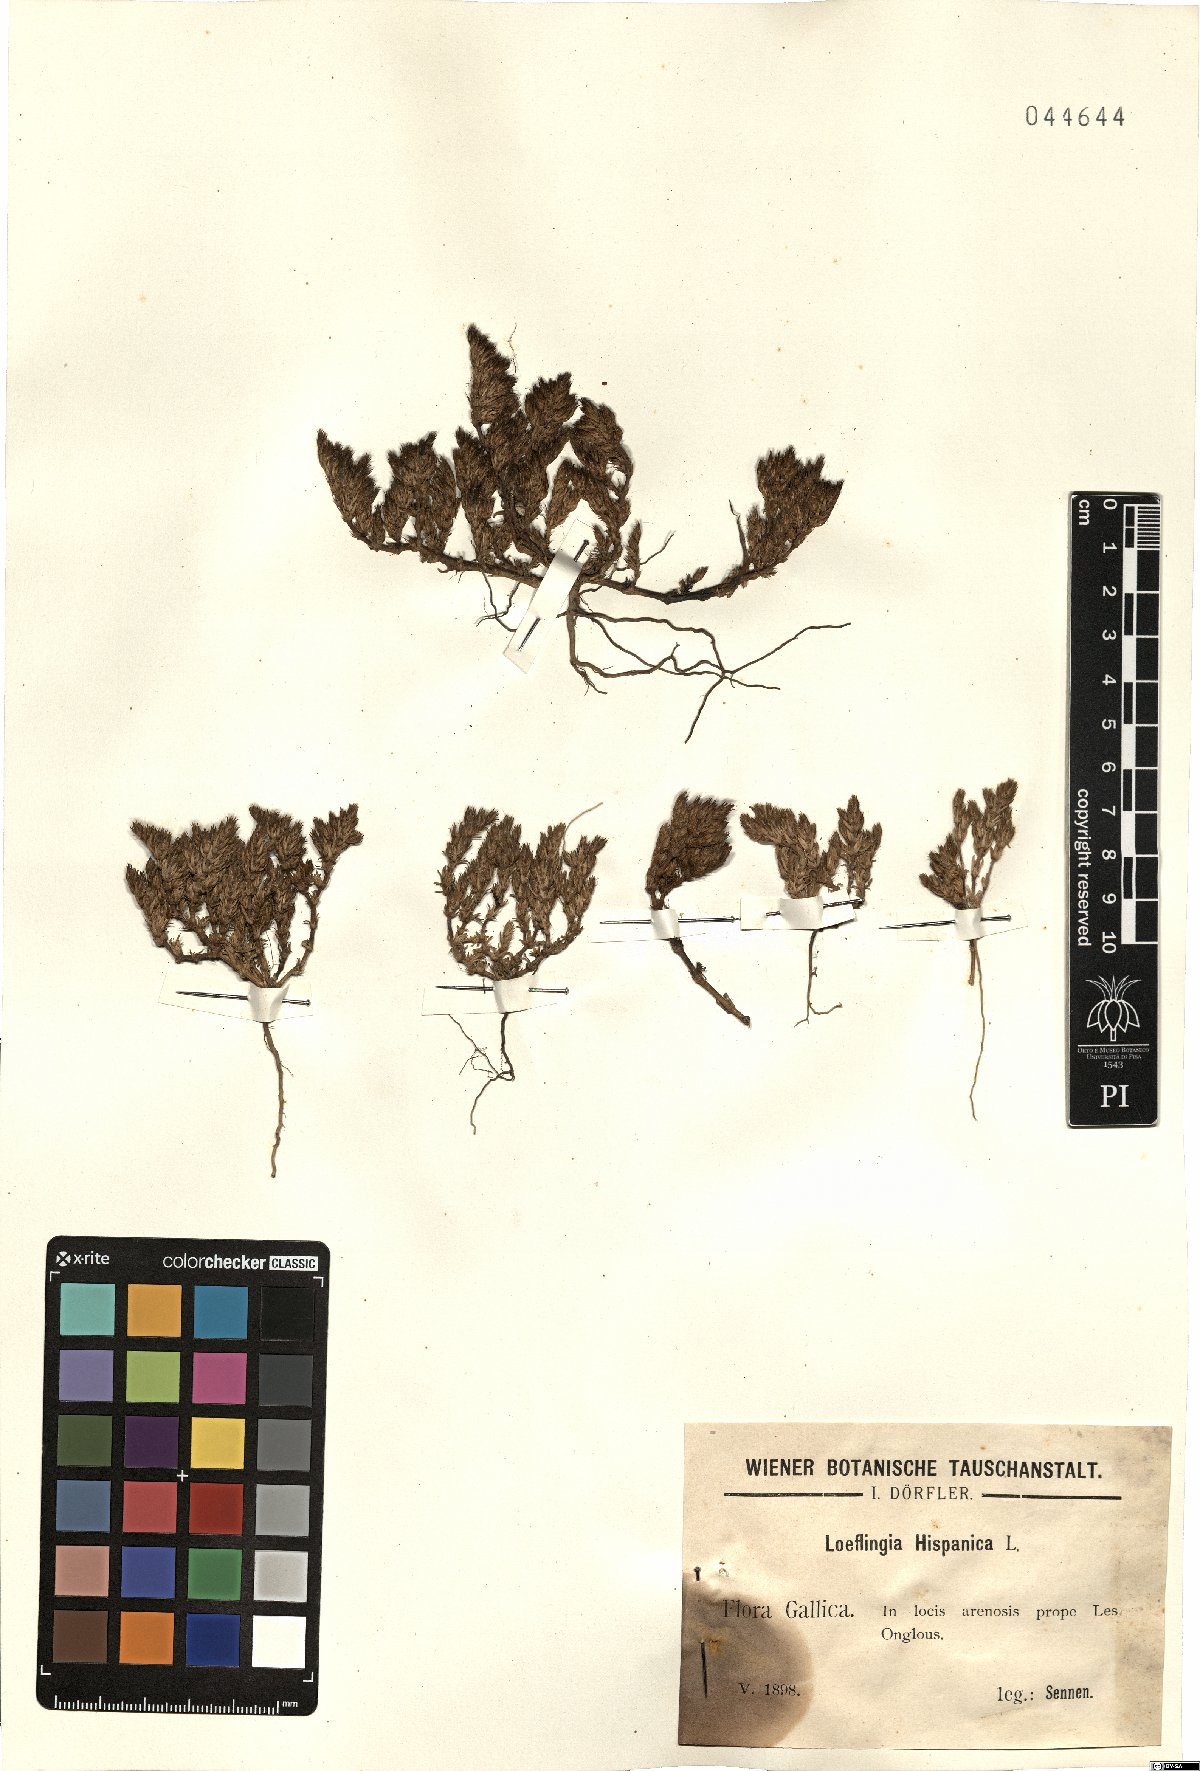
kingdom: Plantae
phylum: Tracheophyta
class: Magnoliopsida
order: Caryophyllales
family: Caryophyllaceae
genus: Loeflingia
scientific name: Loeflingia hispanica
